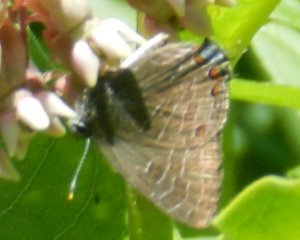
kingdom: Animalia
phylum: Arthropoda
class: Insecta
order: Lepidoptera
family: Lycaenidae
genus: Satyrium
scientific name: Satyrium liparops
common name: Striped Hairstreak
